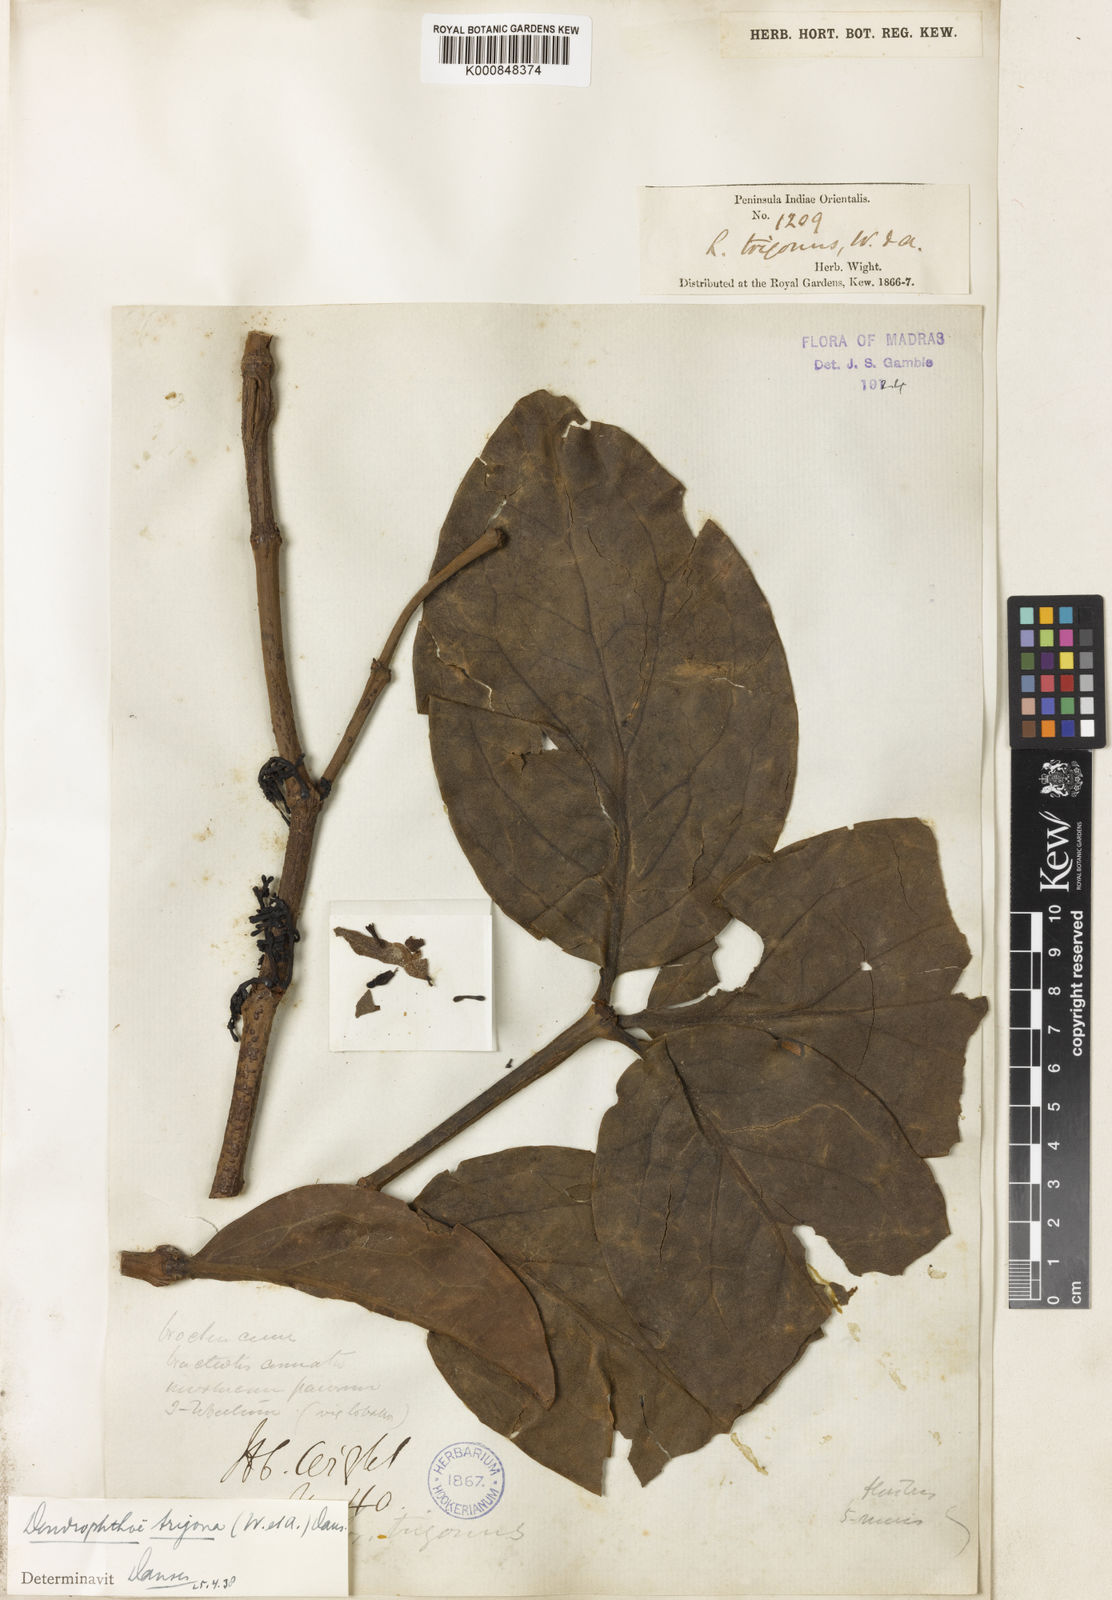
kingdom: Plantae
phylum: Tracheophyta
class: Magnoliopsida
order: Santalales
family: Loranthaceae
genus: Macrosolen
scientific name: Macrosolen trigonus
